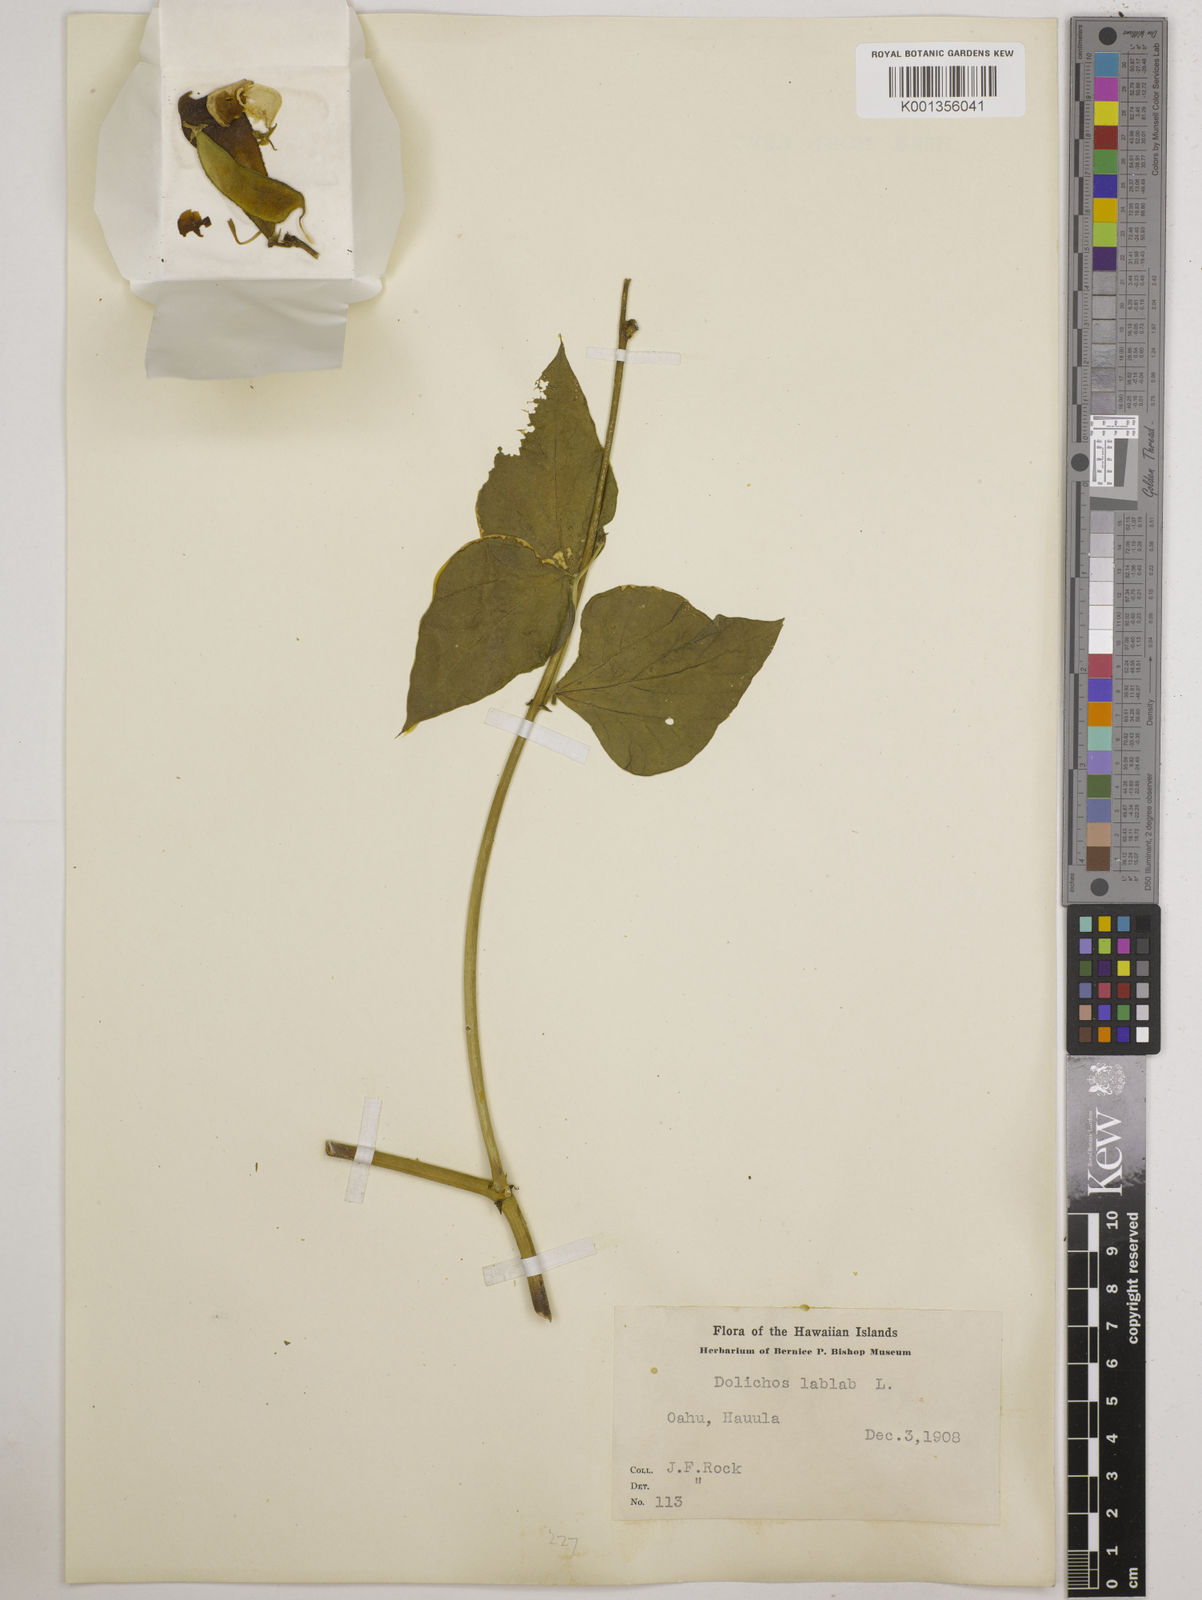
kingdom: Plantae
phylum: Tracheophyta
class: Magnoliopsida
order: Fabales
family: Fabaceae
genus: Lablab
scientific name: Lablab purpureus
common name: Lablab-bean
